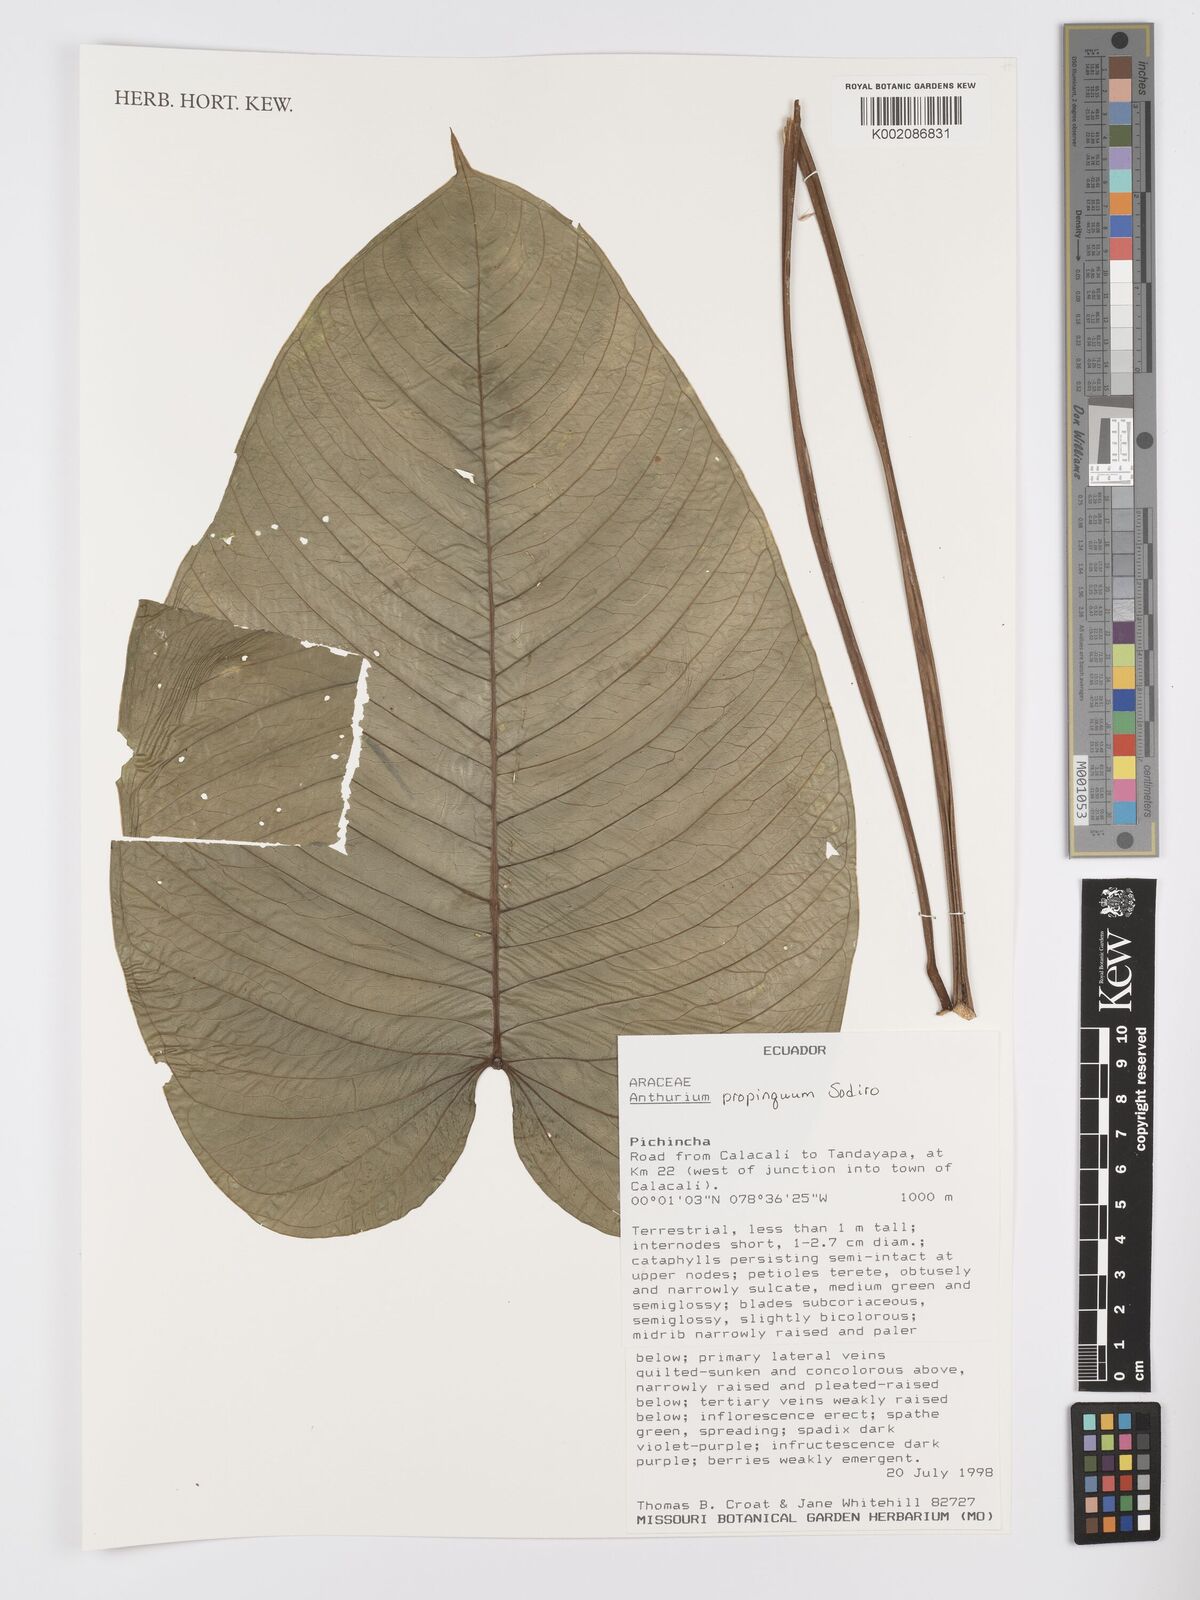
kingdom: Plantae
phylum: Tracheophyta
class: Liliopsida
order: Alismatales
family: Araceae
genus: Anthurium
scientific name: Anthurium cuspidatum
